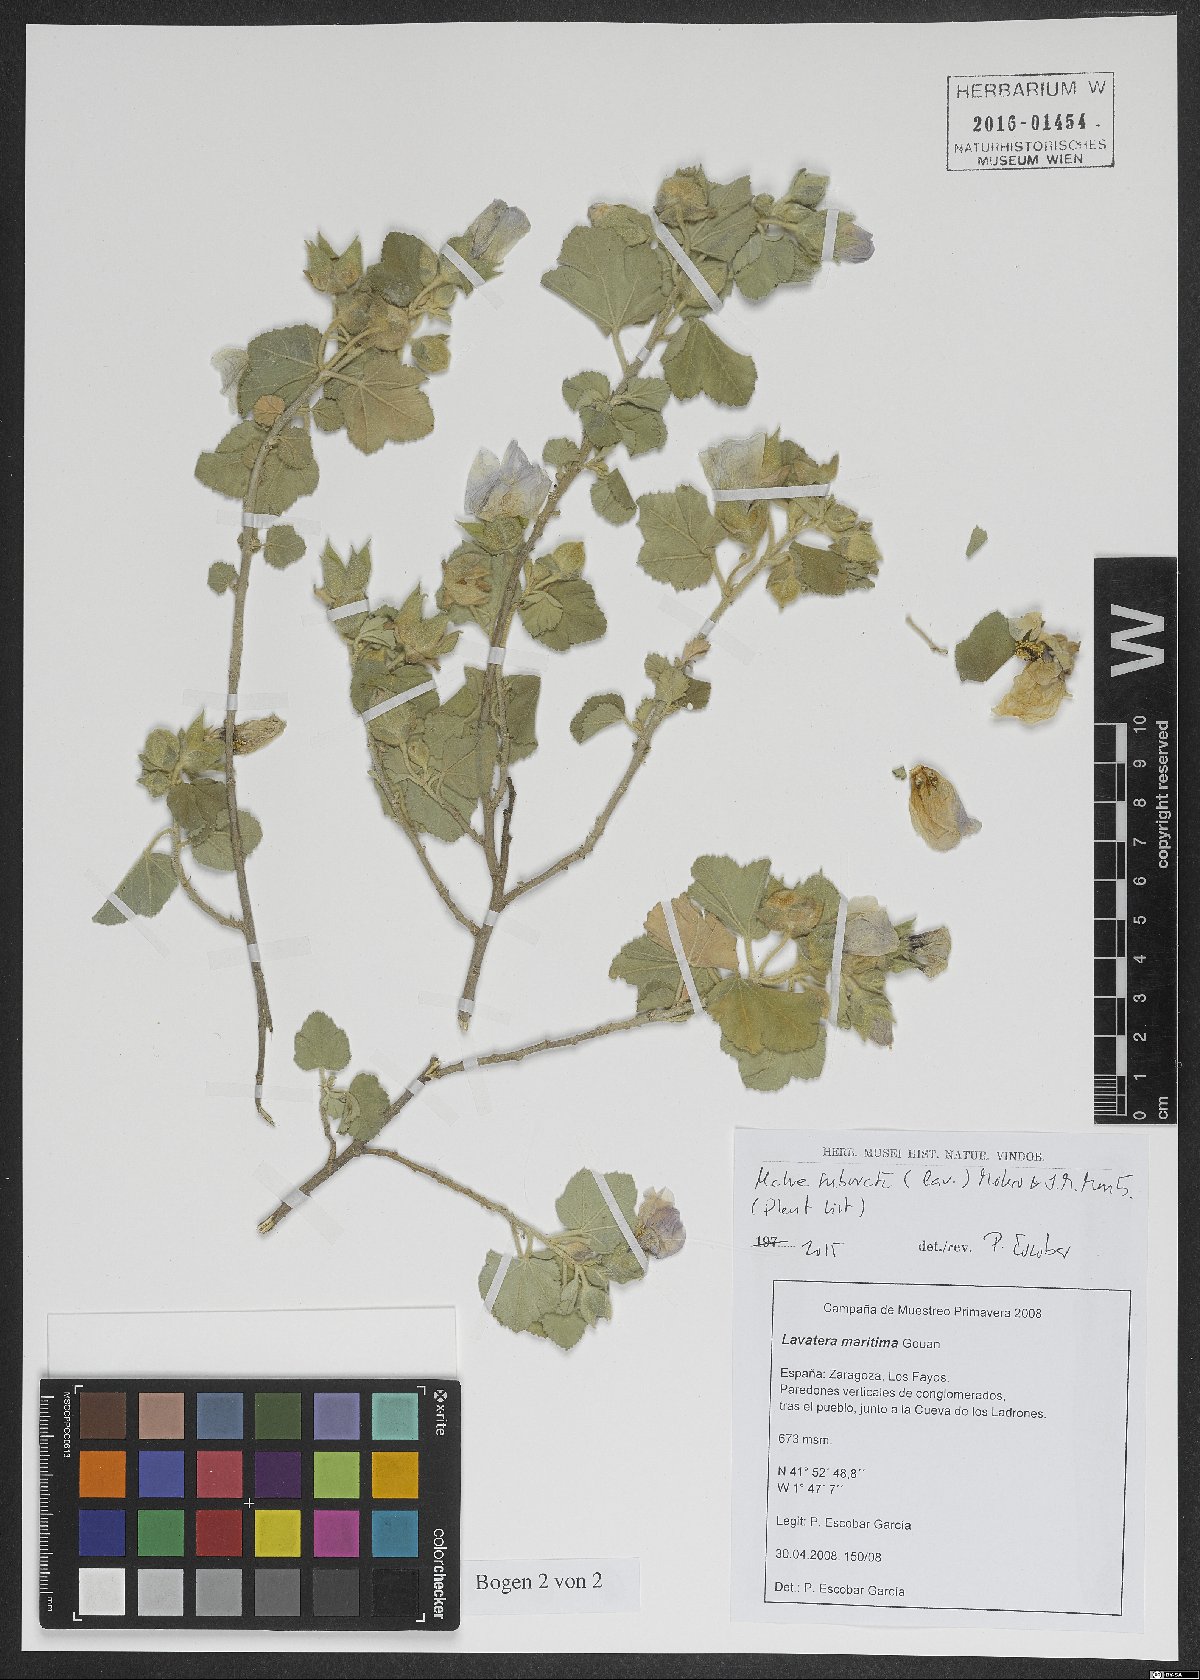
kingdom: Plantae
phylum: Tracheophyta
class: Magnoliopsida
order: Malvales
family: Malvaceae
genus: Malva
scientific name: Malva subovata
